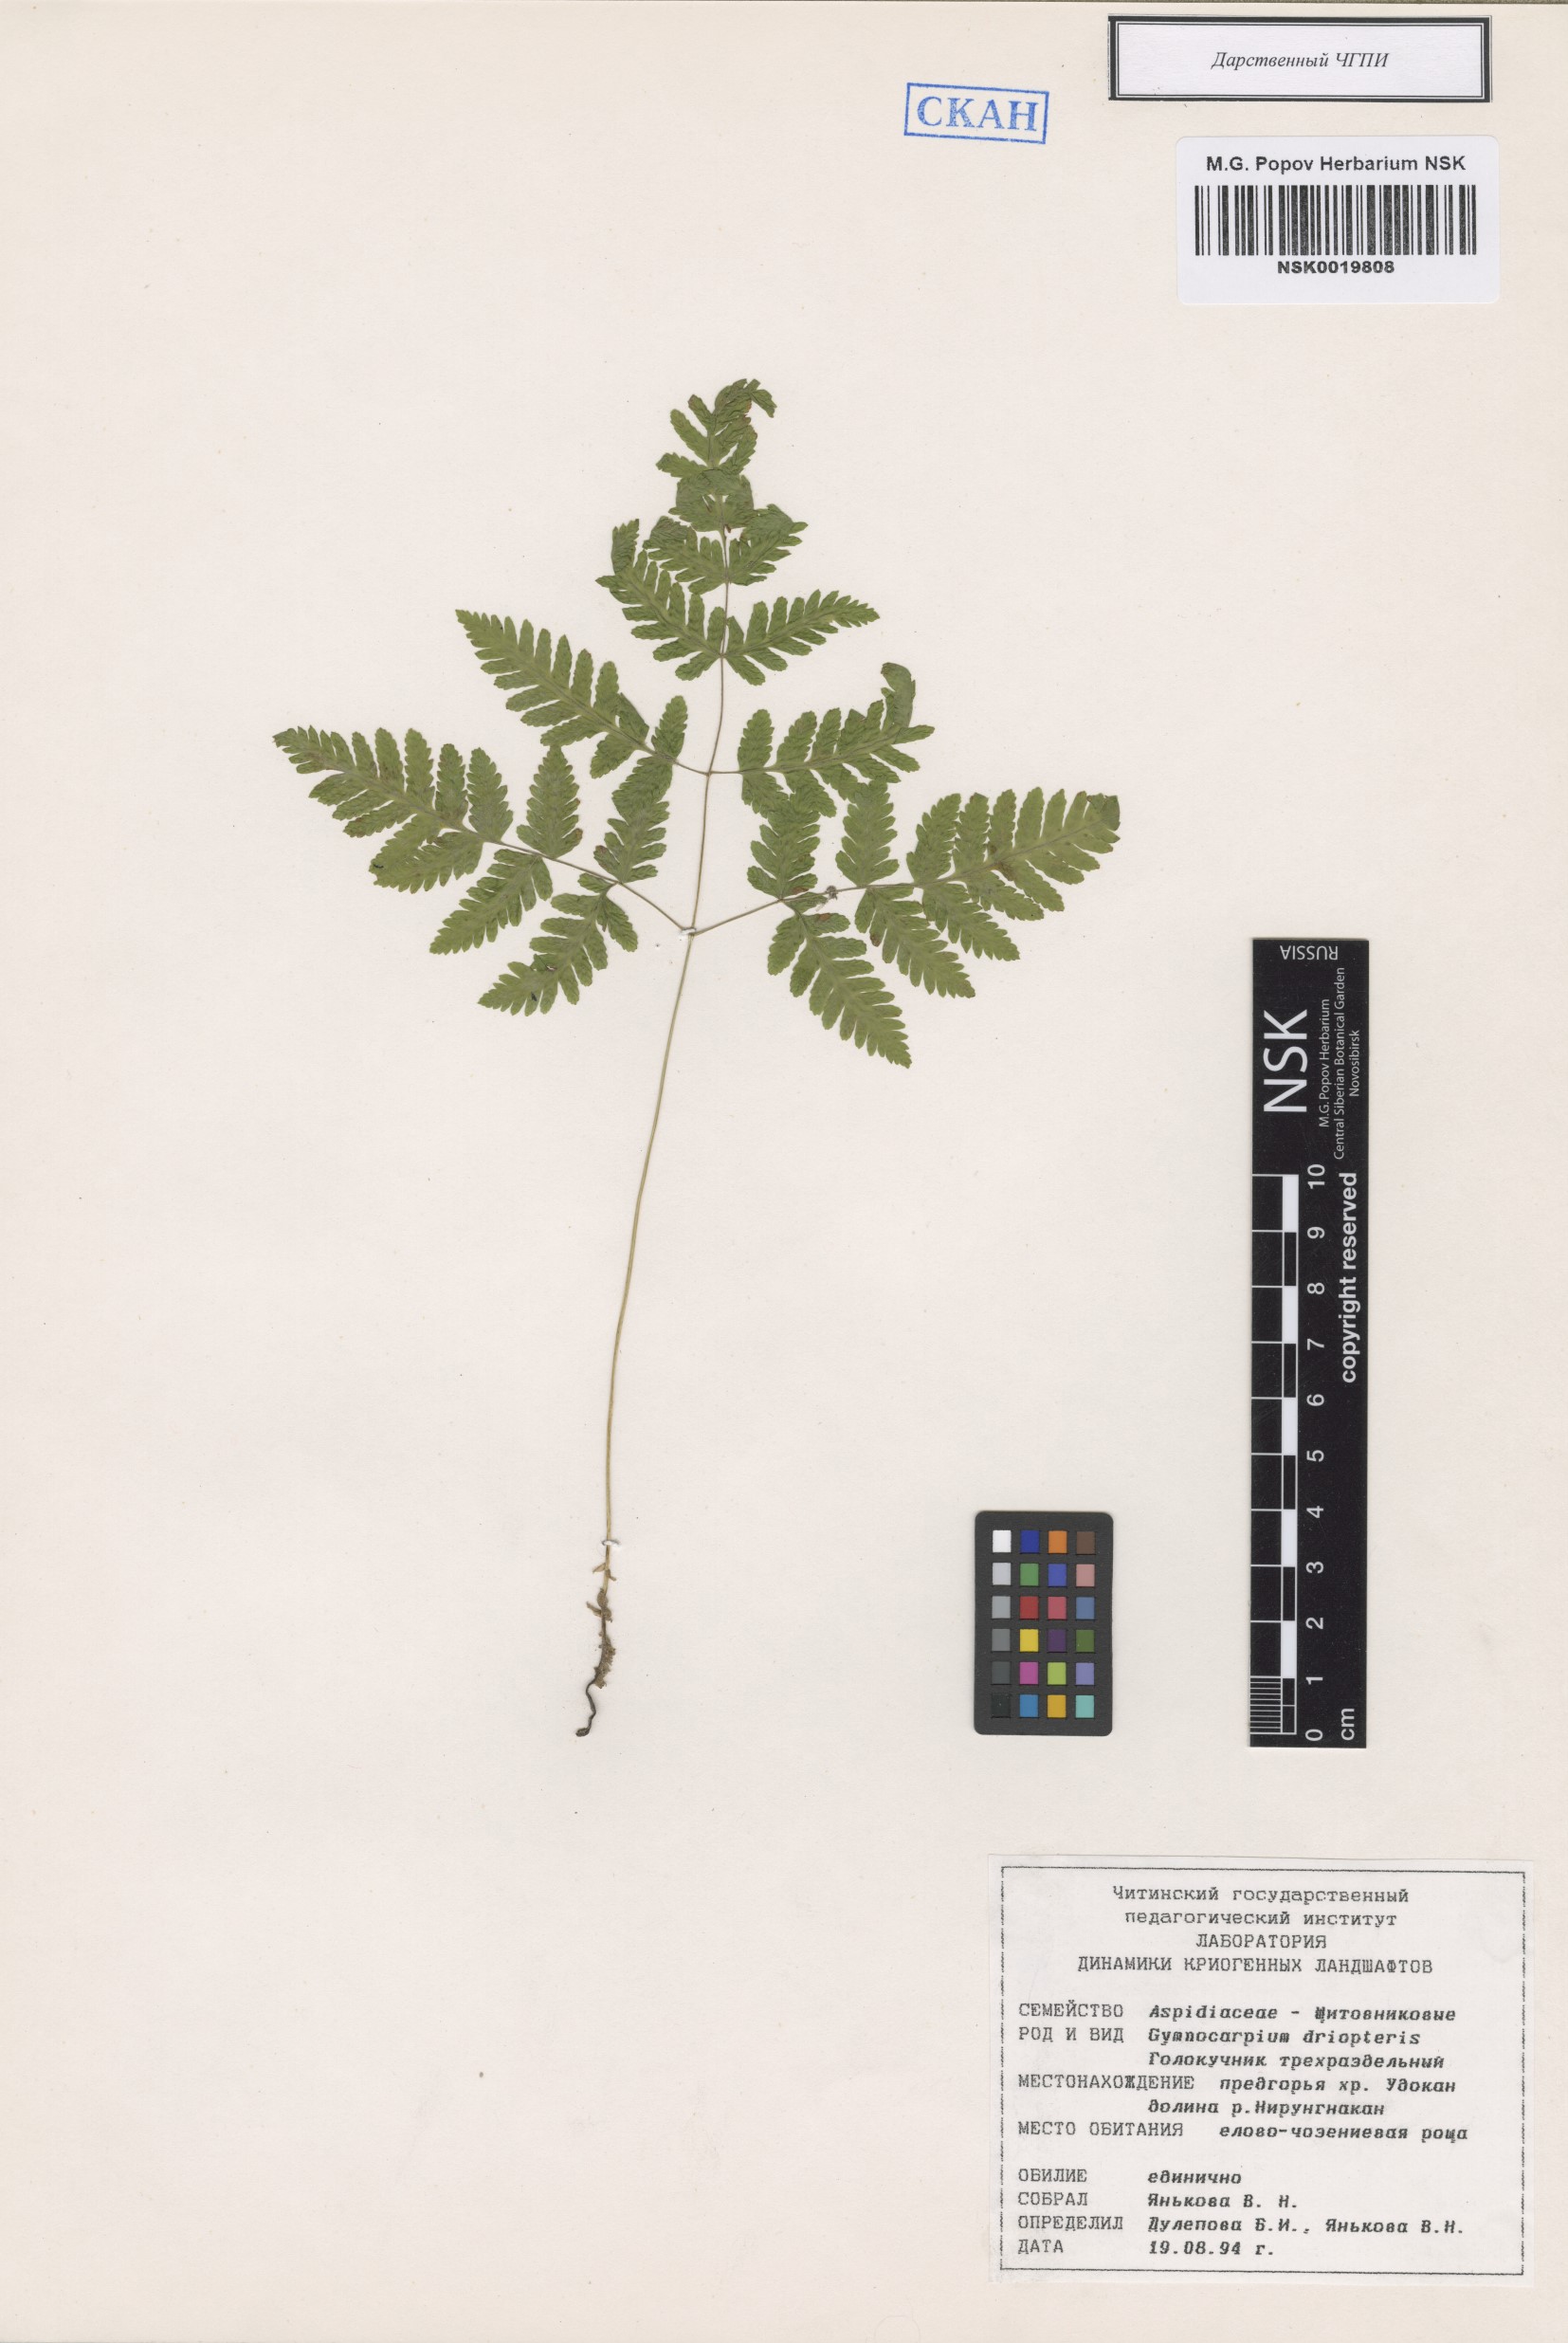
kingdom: Plantae
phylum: Tracheophyta
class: Polypodiopsida
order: Polypodiales
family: Cystopteridaceae
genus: Gymnocarpium
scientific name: Gymnocarpium dryopteris
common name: Oak fern
